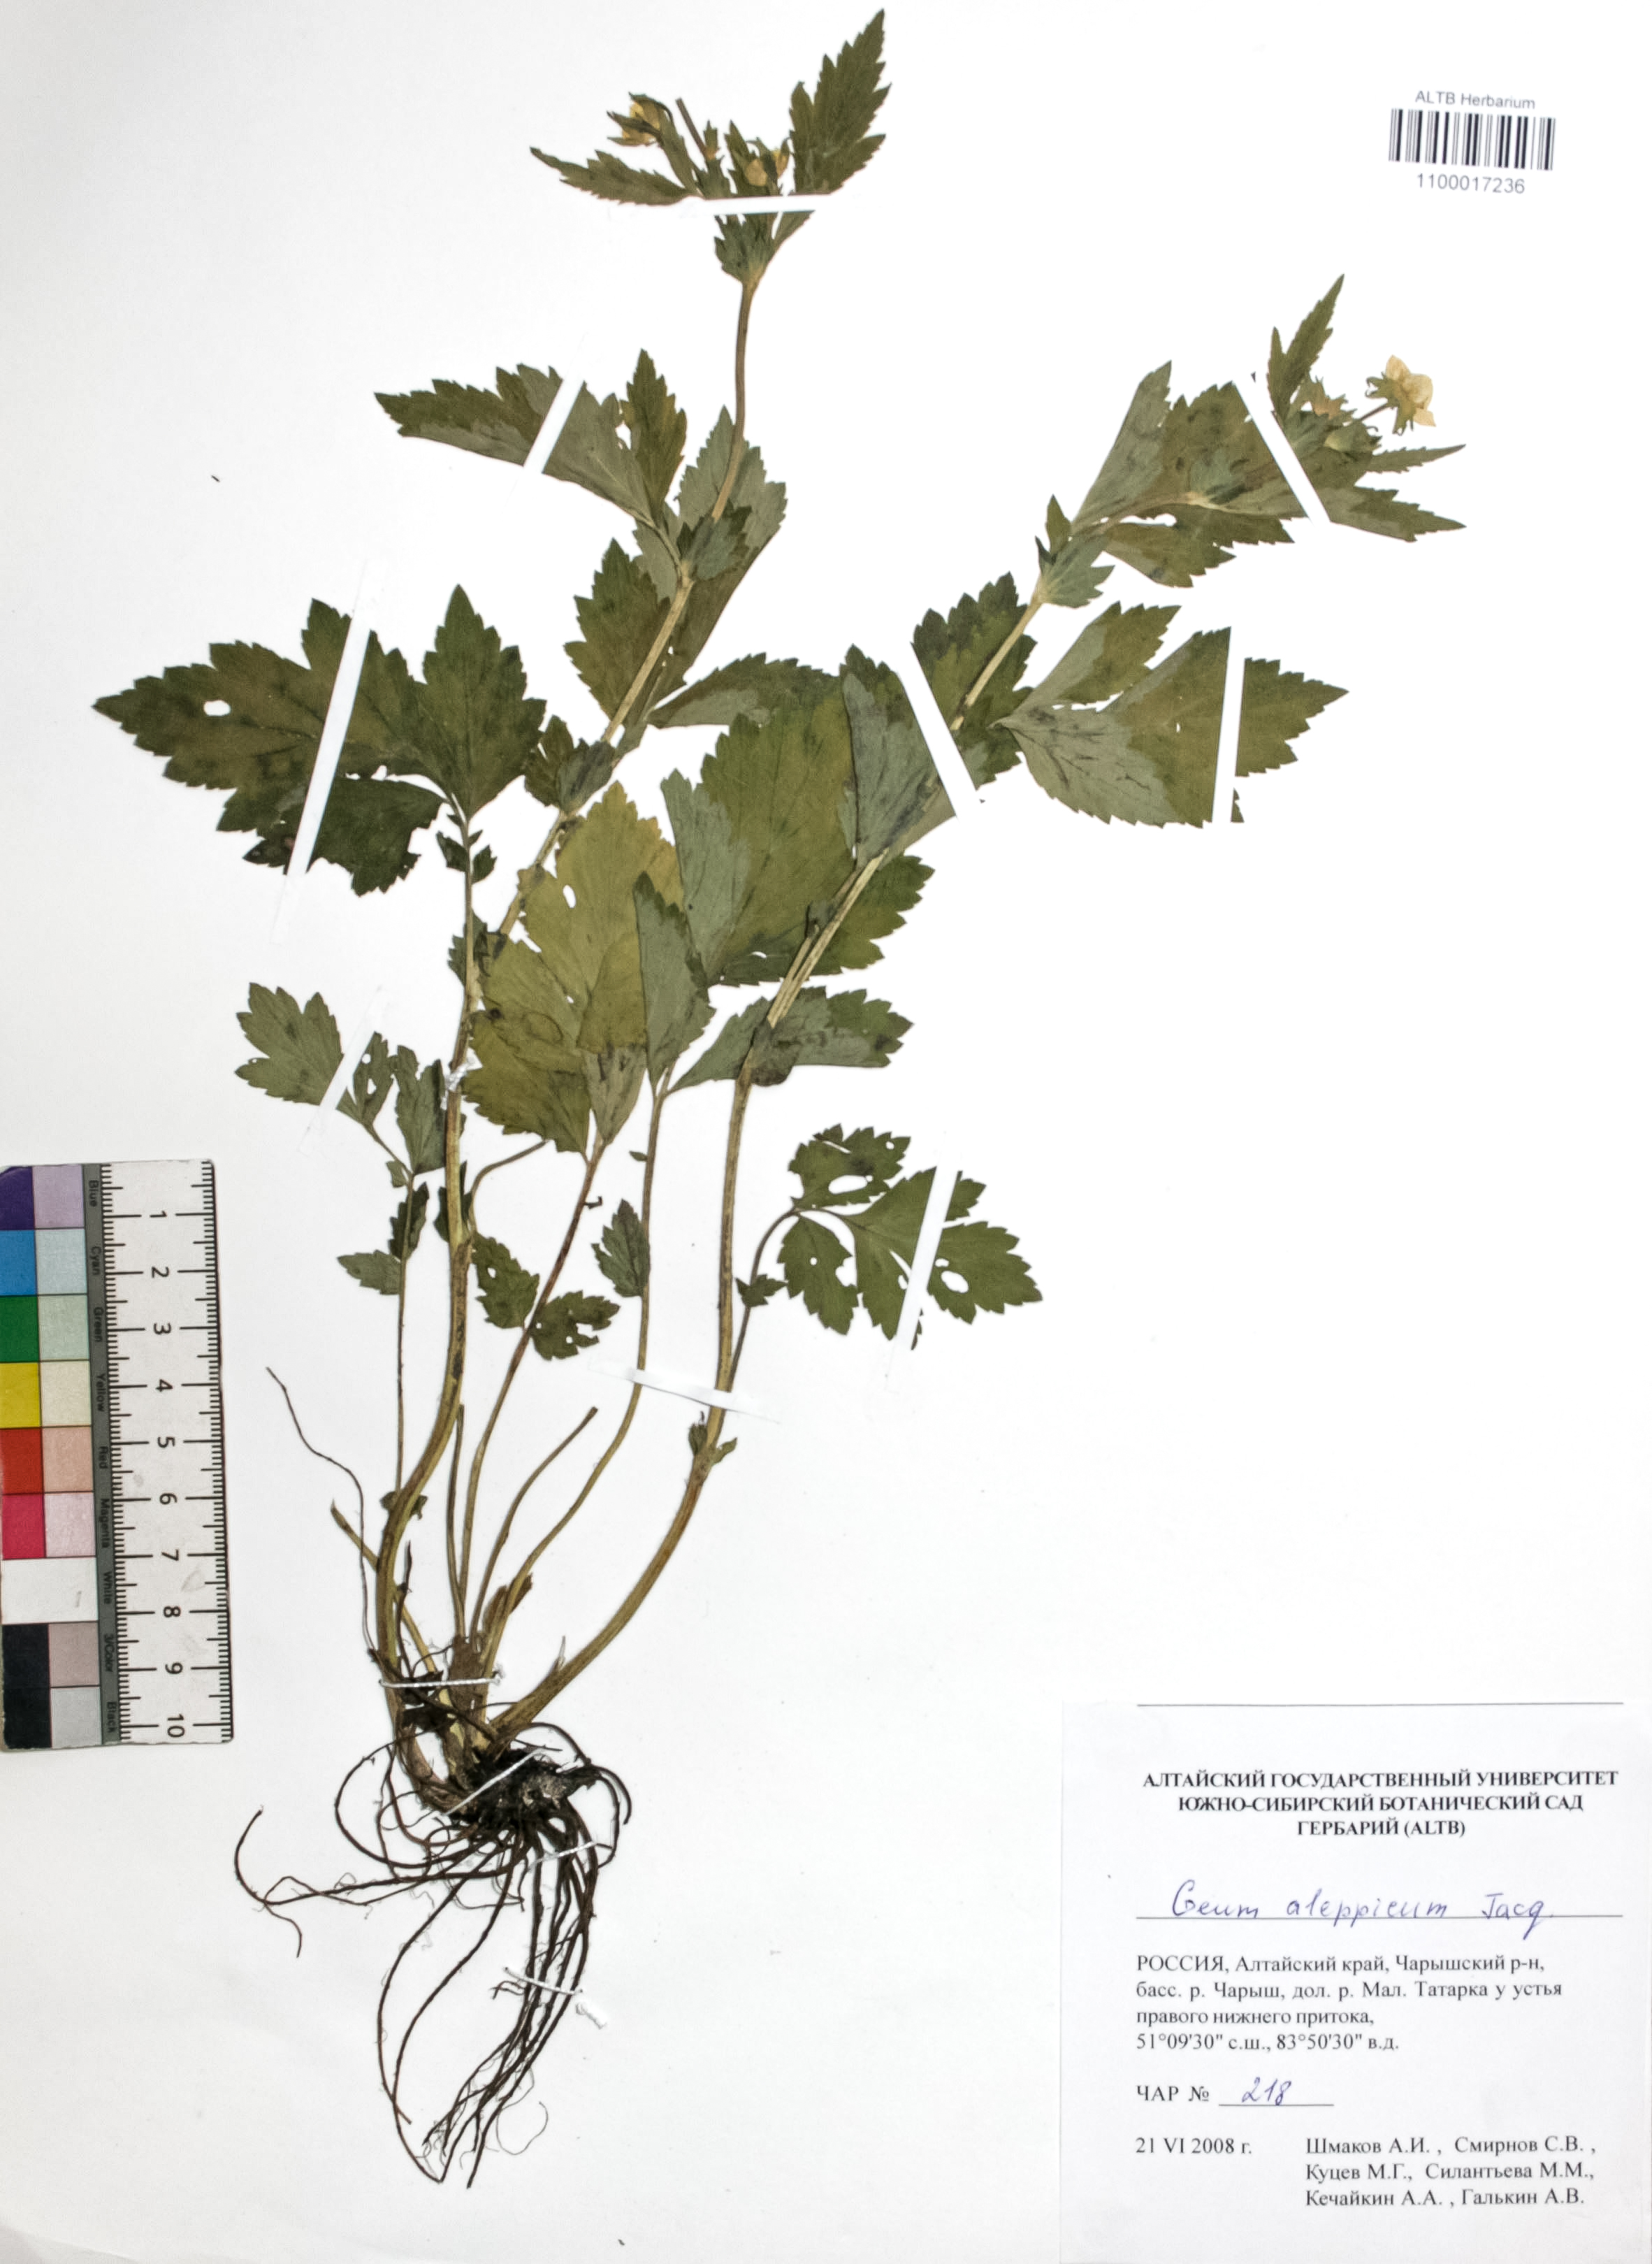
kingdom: Plantae
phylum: Tracheophyta
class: Magnoliopsida
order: Rosales
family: Rosaceae
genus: Geum
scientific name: Geum aleppicum
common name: Yellow avens
